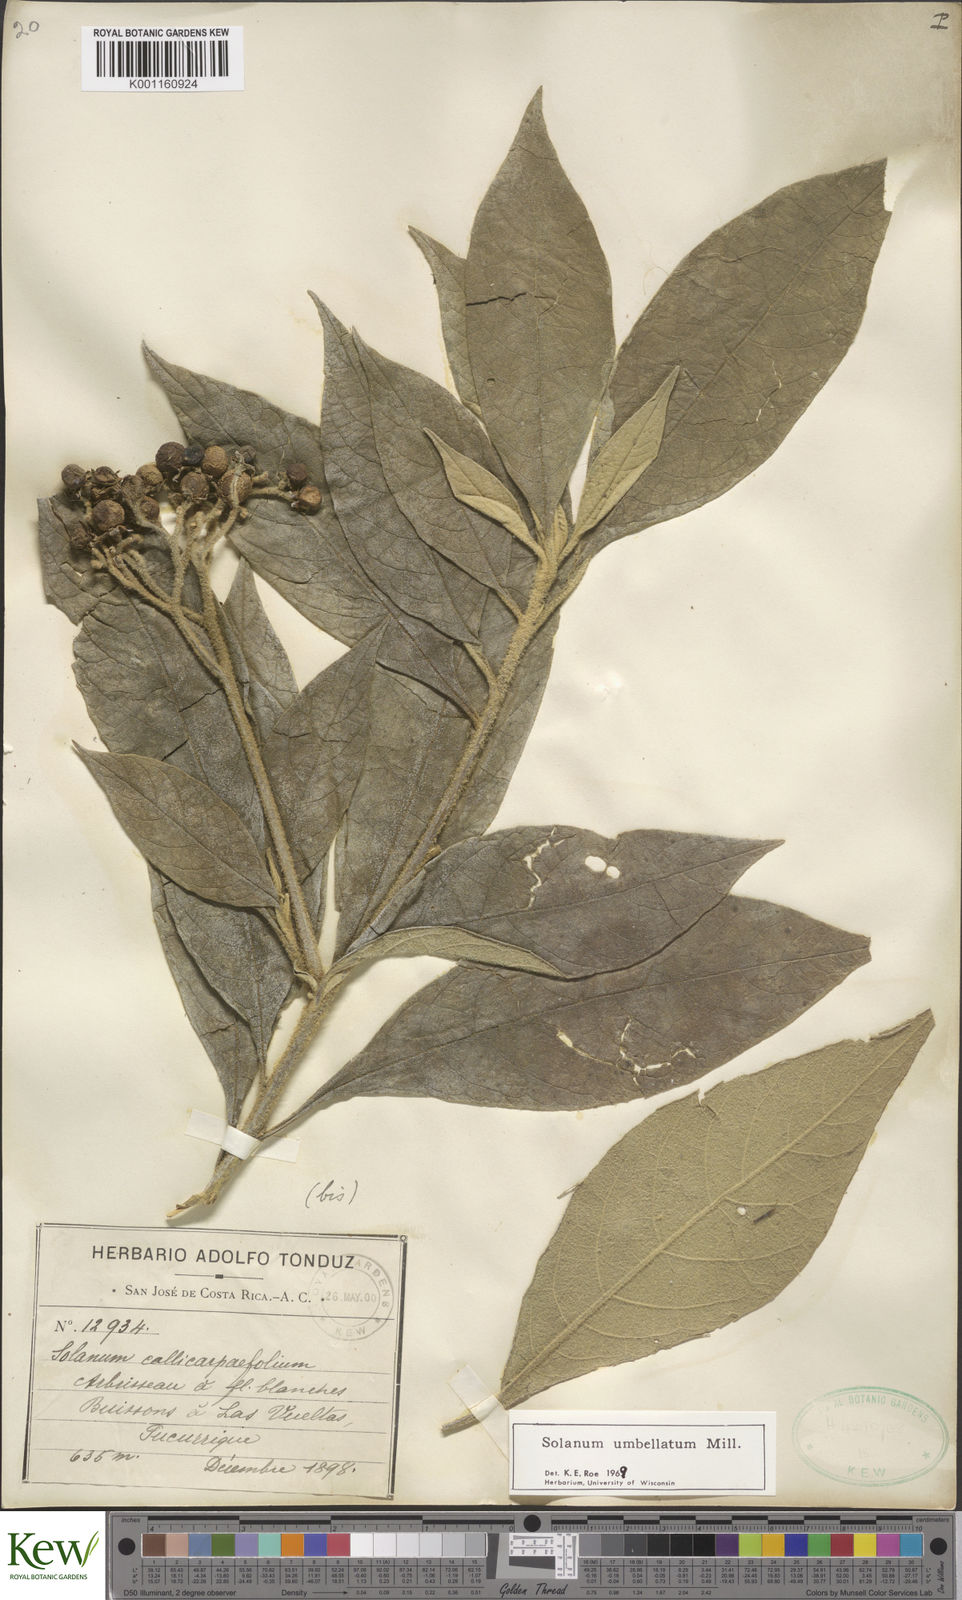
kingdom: Plantae
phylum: Tracheophyta
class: Magnoliopsida
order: Solanales
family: Solanaceae
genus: Solanum
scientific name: Solanum umbellatum
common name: Nightshade
